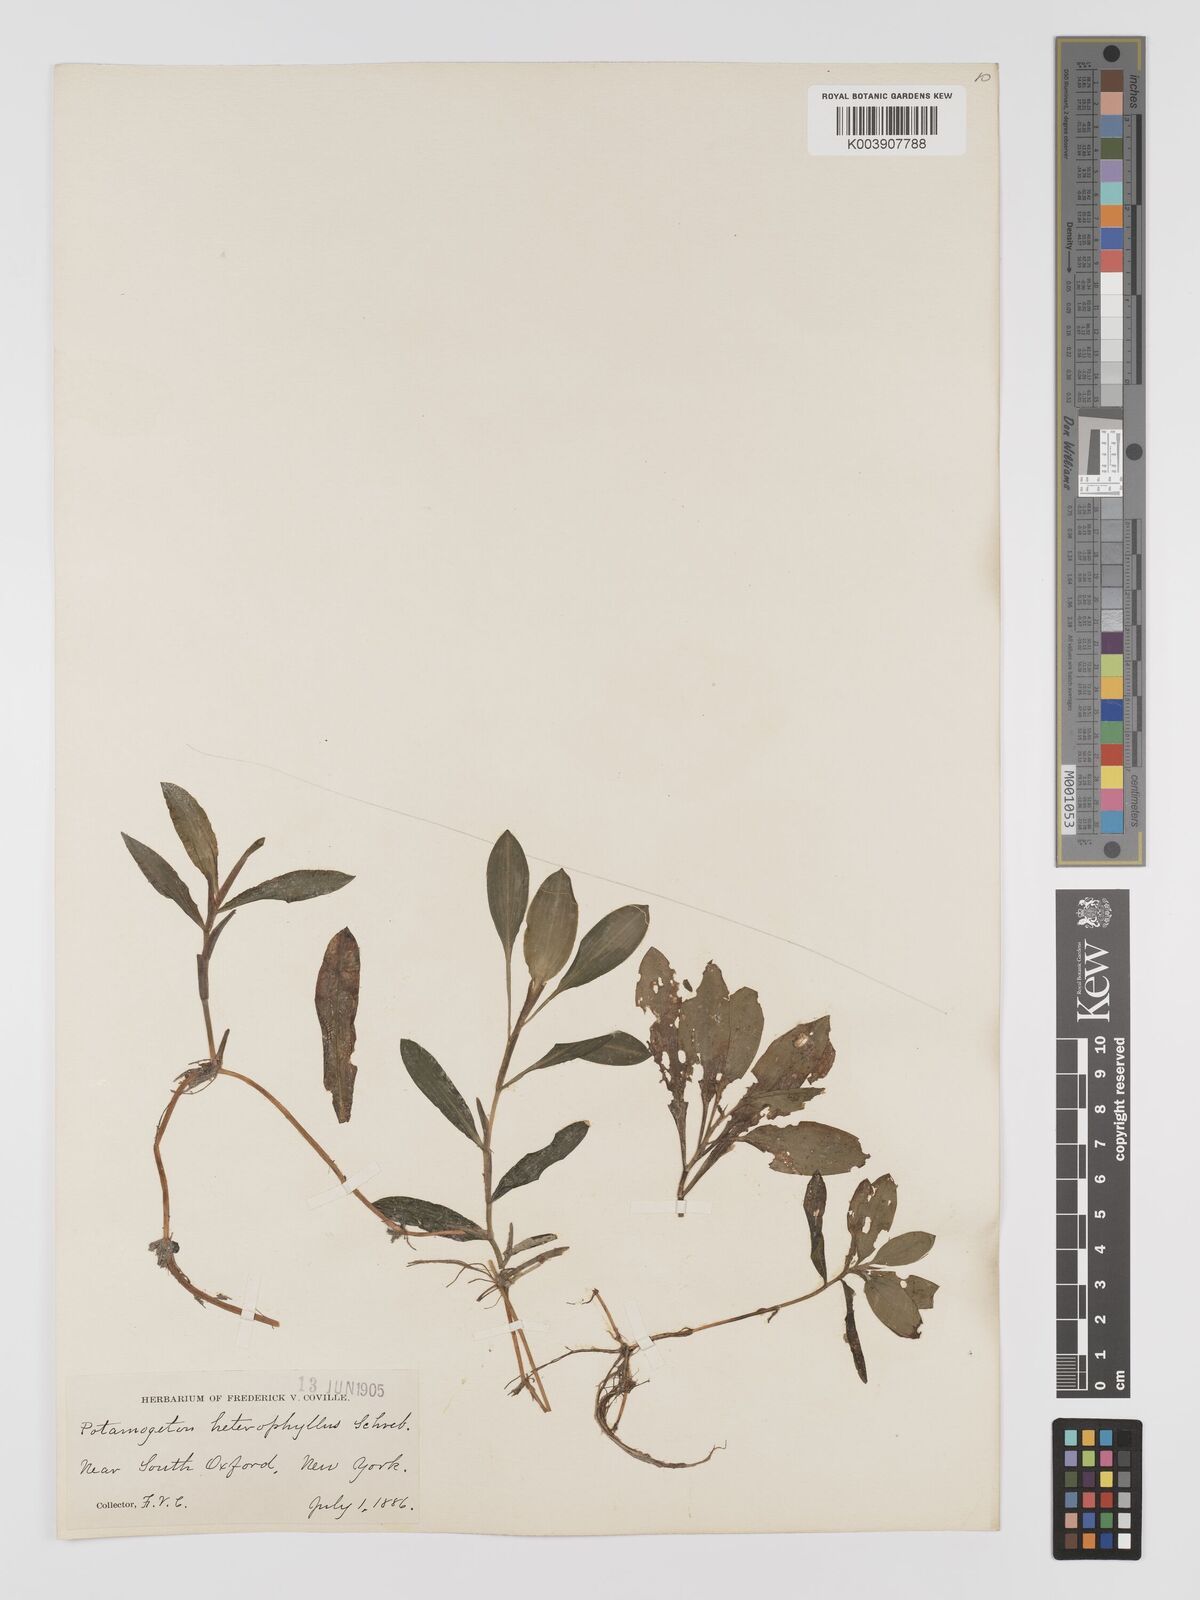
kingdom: Plantae
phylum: Tracheophyta
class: Liliopsida
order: Alismatales
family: Potamogetonaceae
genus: Potamogeton
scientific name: Potamogeton gramineus
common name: Various-leaved pondweed
